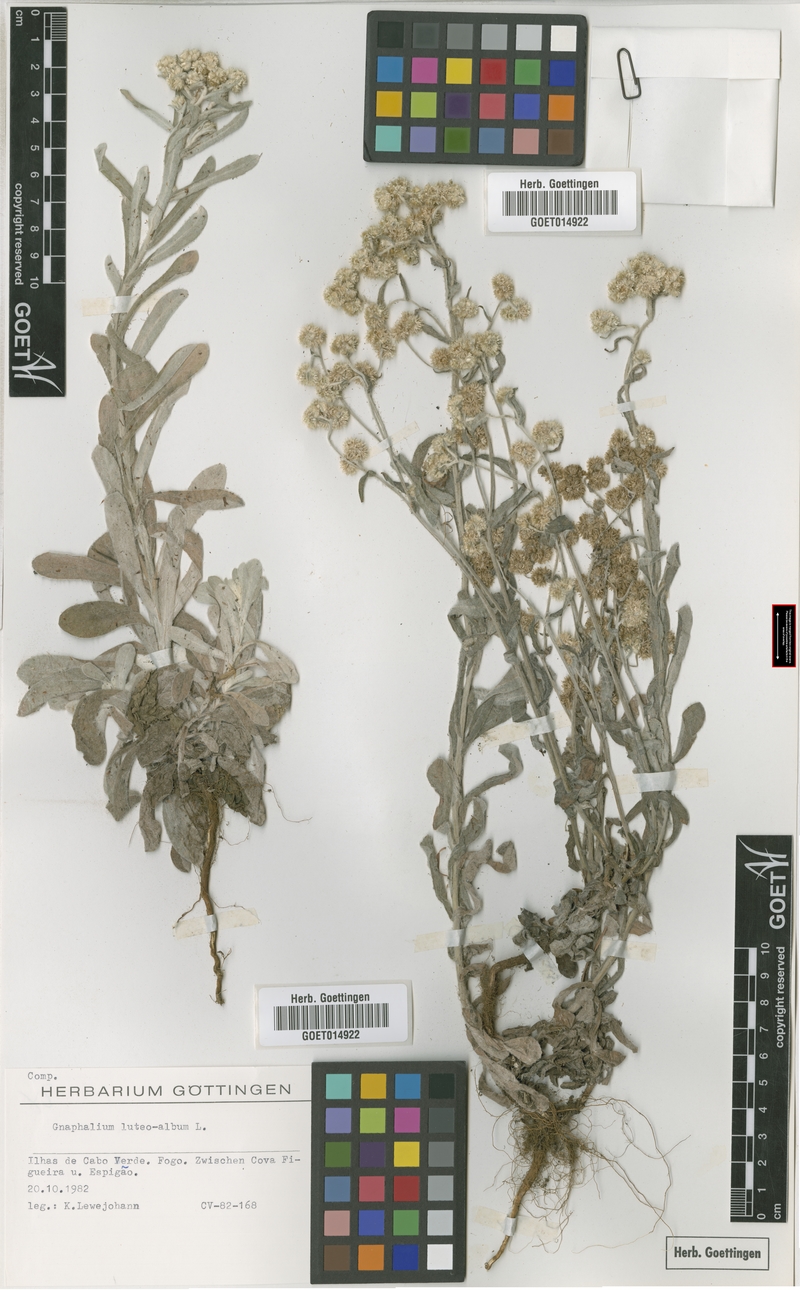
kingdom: Plantae
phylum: Tracheophyta
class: Magnoliopsida
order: Asterales
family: Asteraceae
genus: Helichrysum
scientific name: Helichrysum luteoalbum
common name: Daisy
